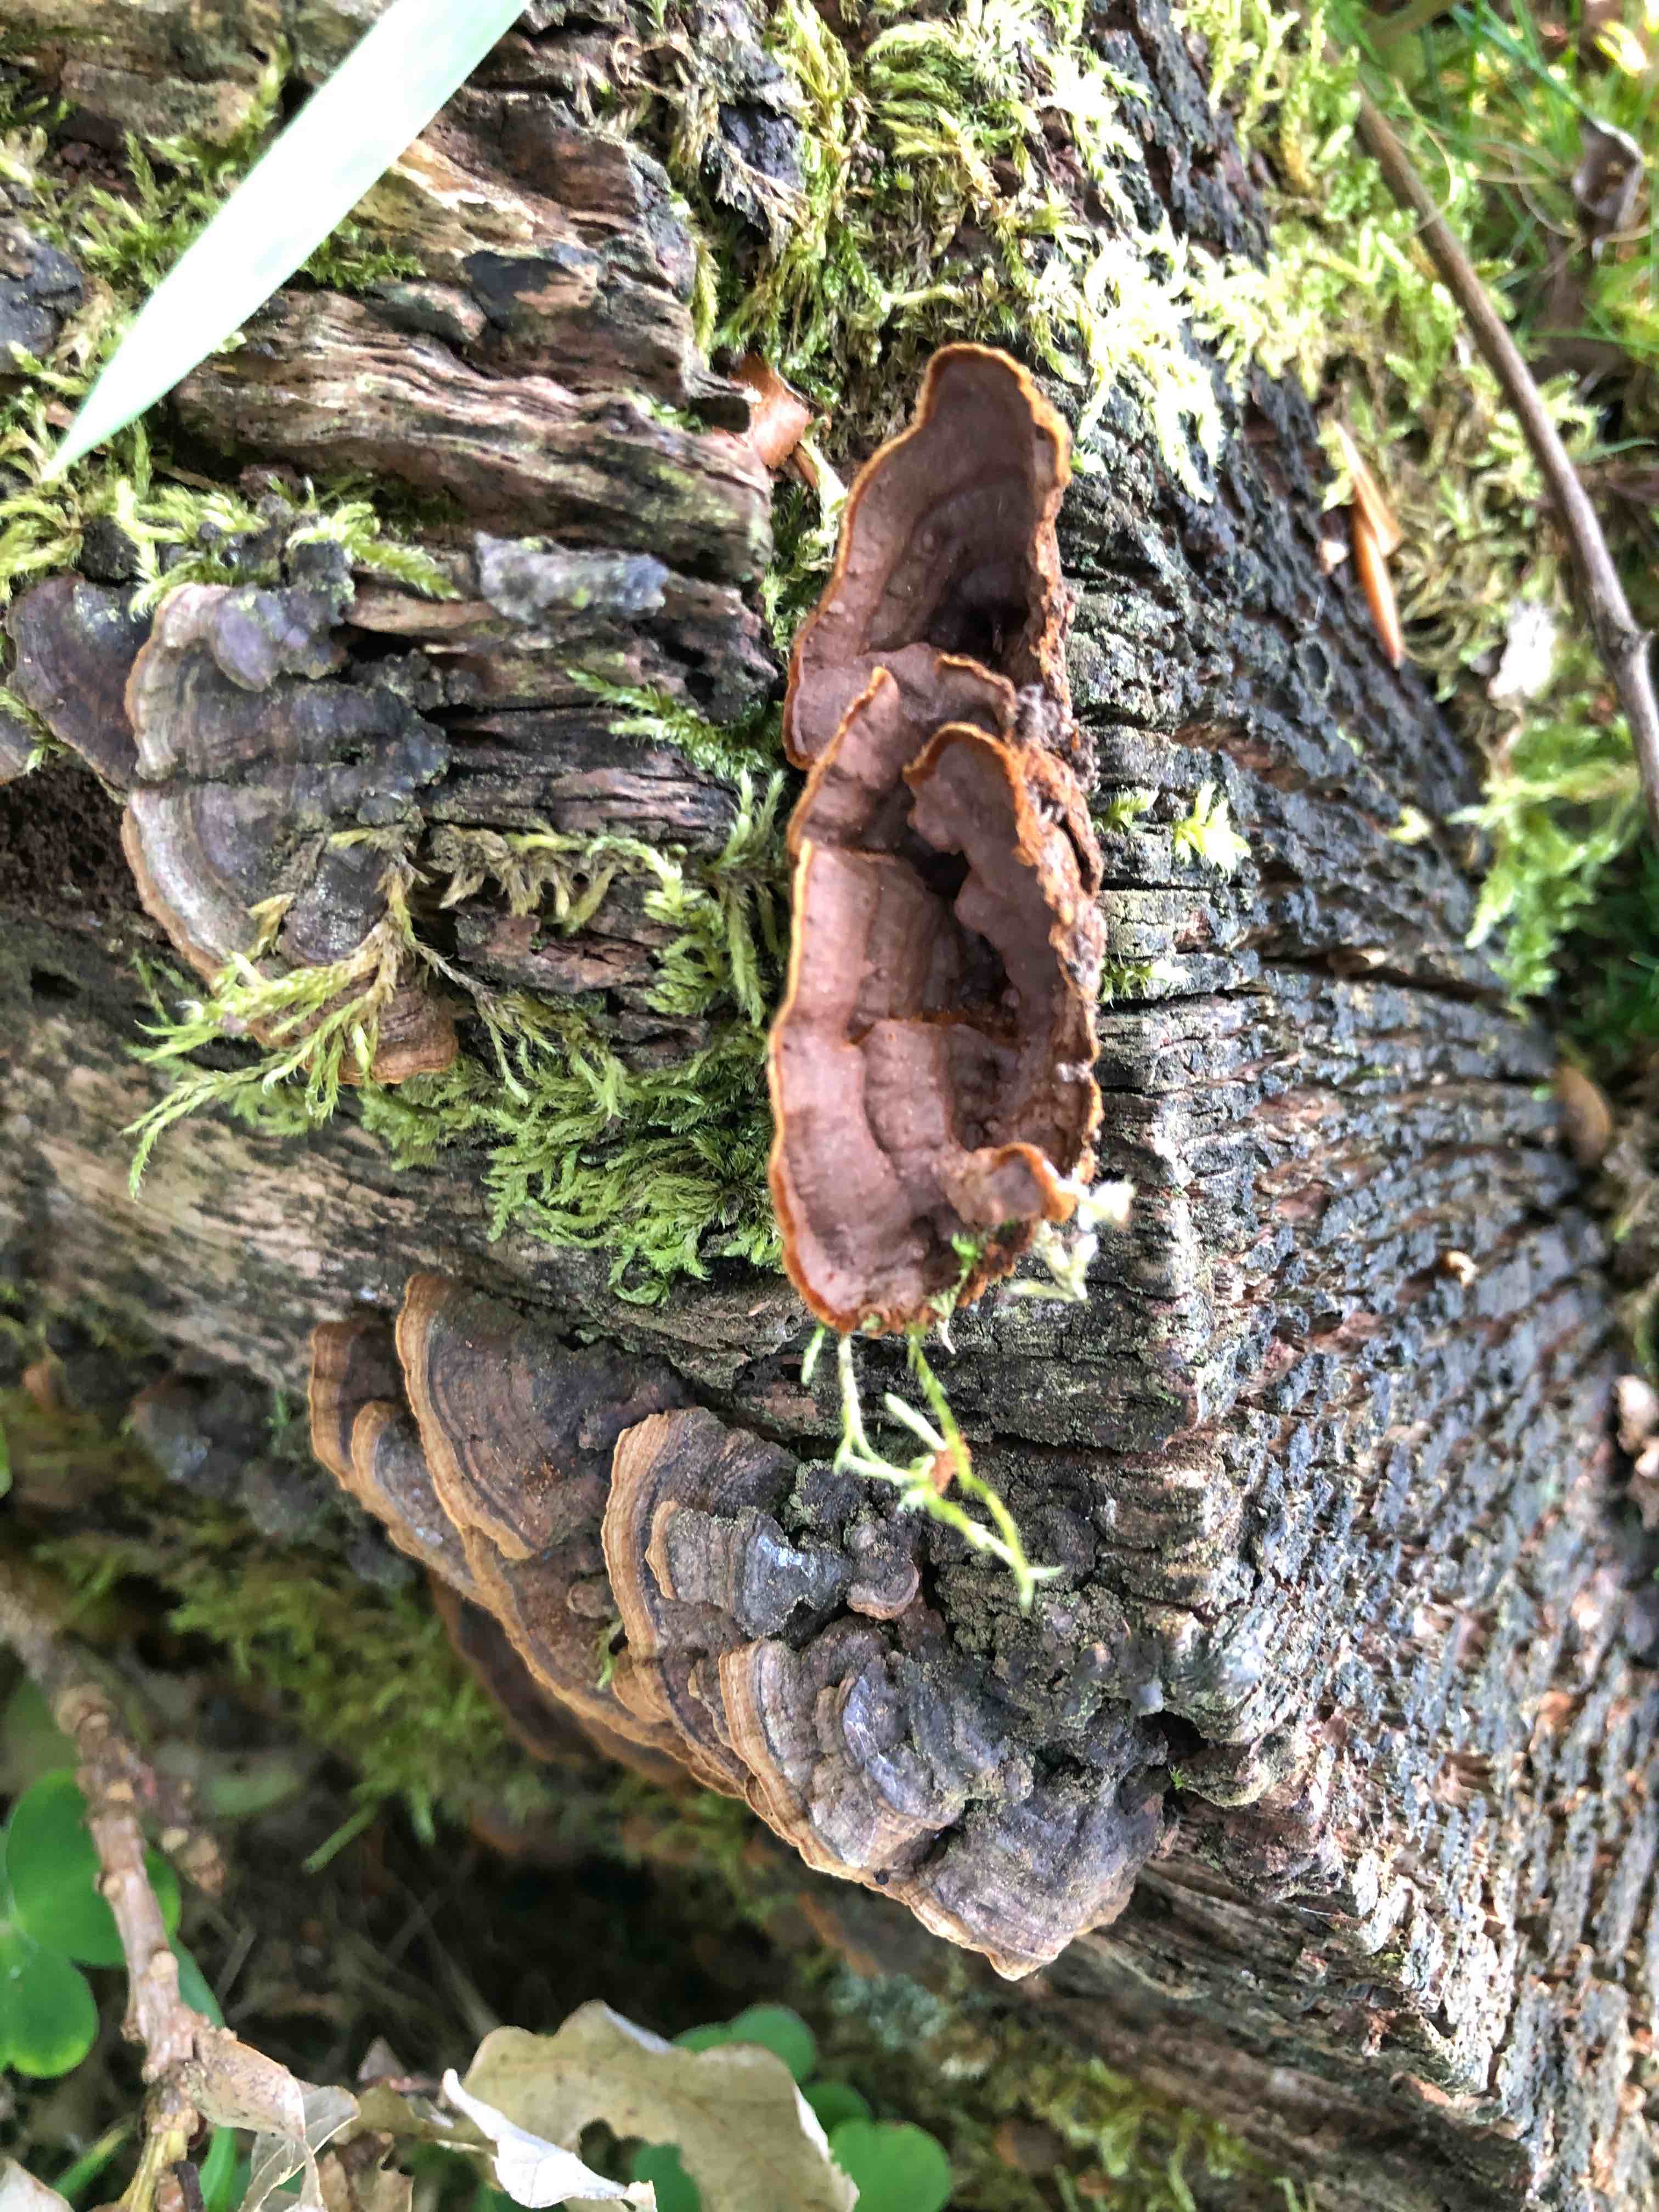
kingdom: Fungi
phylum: Basidiomycota
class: Agaricomycetes
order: Hymenochaetales
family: Hymenochaetaceae
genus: Hymenochaete
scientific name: Hymenochaete rubiginosa
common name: stiv ruslædersvamp
